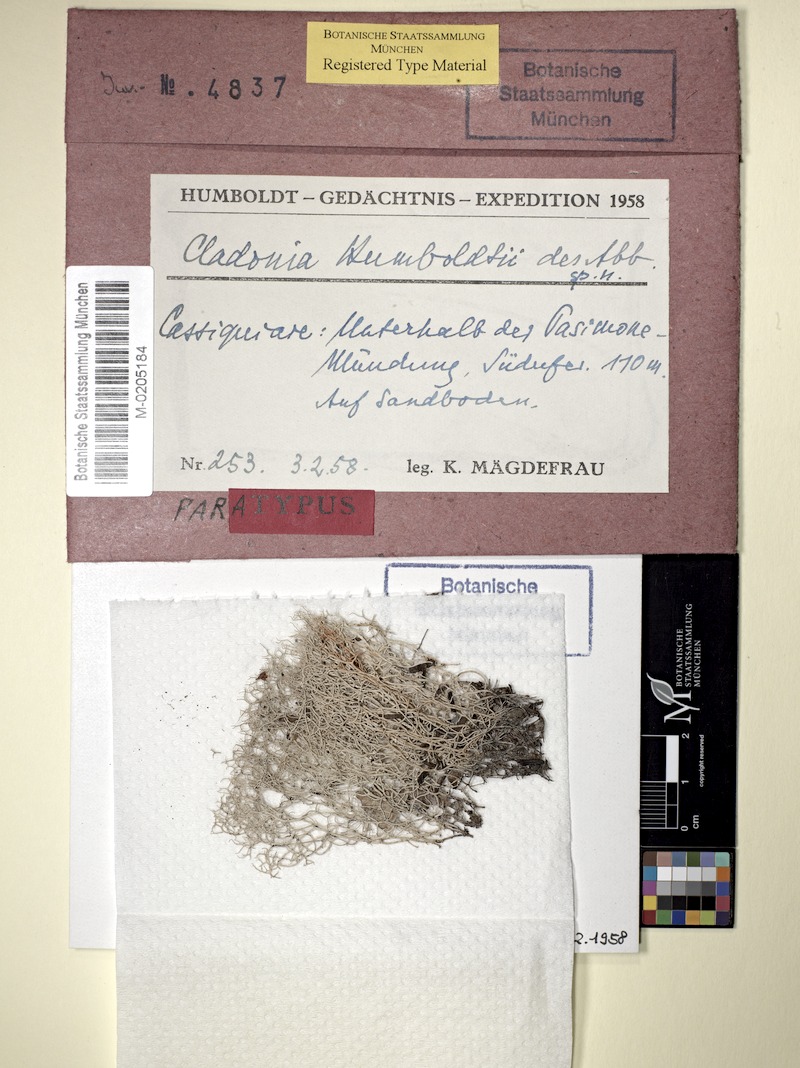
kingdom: Fungi
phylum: Ascomycota
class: Lecanoromycetes
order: Lecanorales
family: Cladoniaceae
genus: Cladonia
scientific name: Cladonia pertricosa
